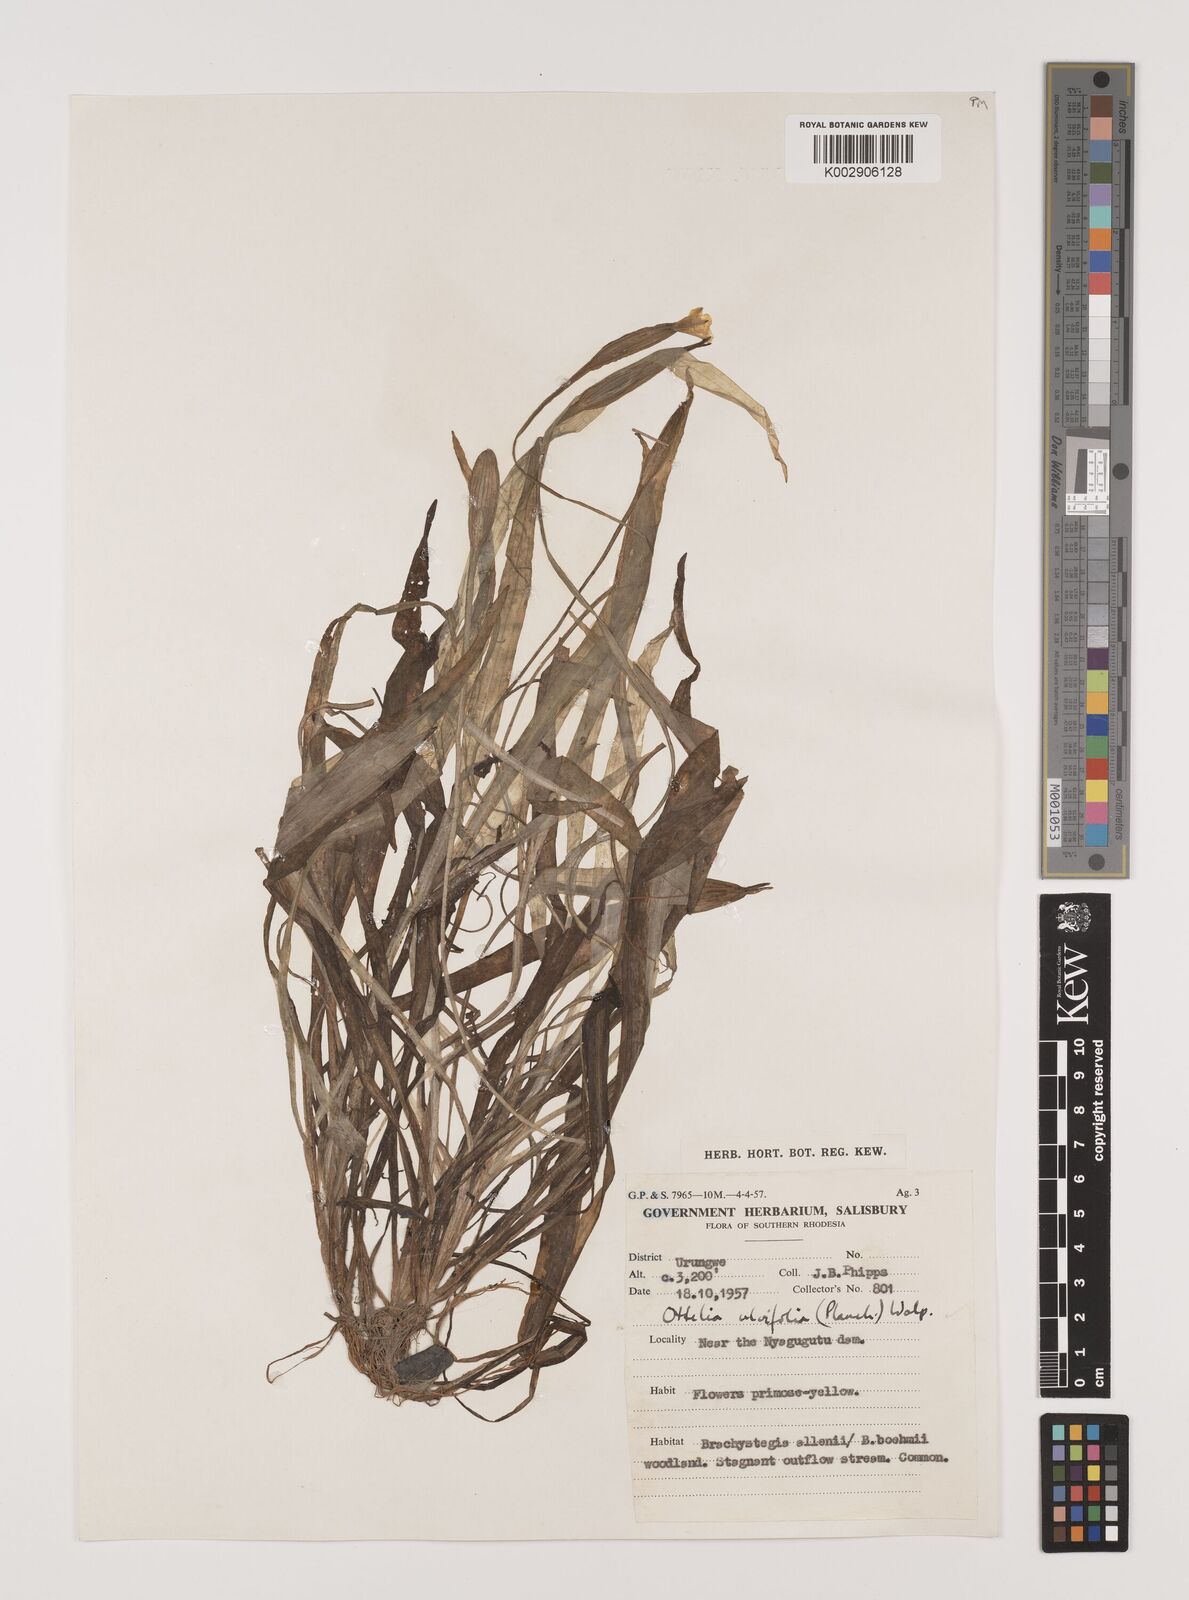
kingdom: Plantae
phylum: Tracheophyta
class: Liliopsida
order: Alismatales
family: Hydrocharitaceae
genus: Ottelia
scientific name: Ottelia ulvifolia
